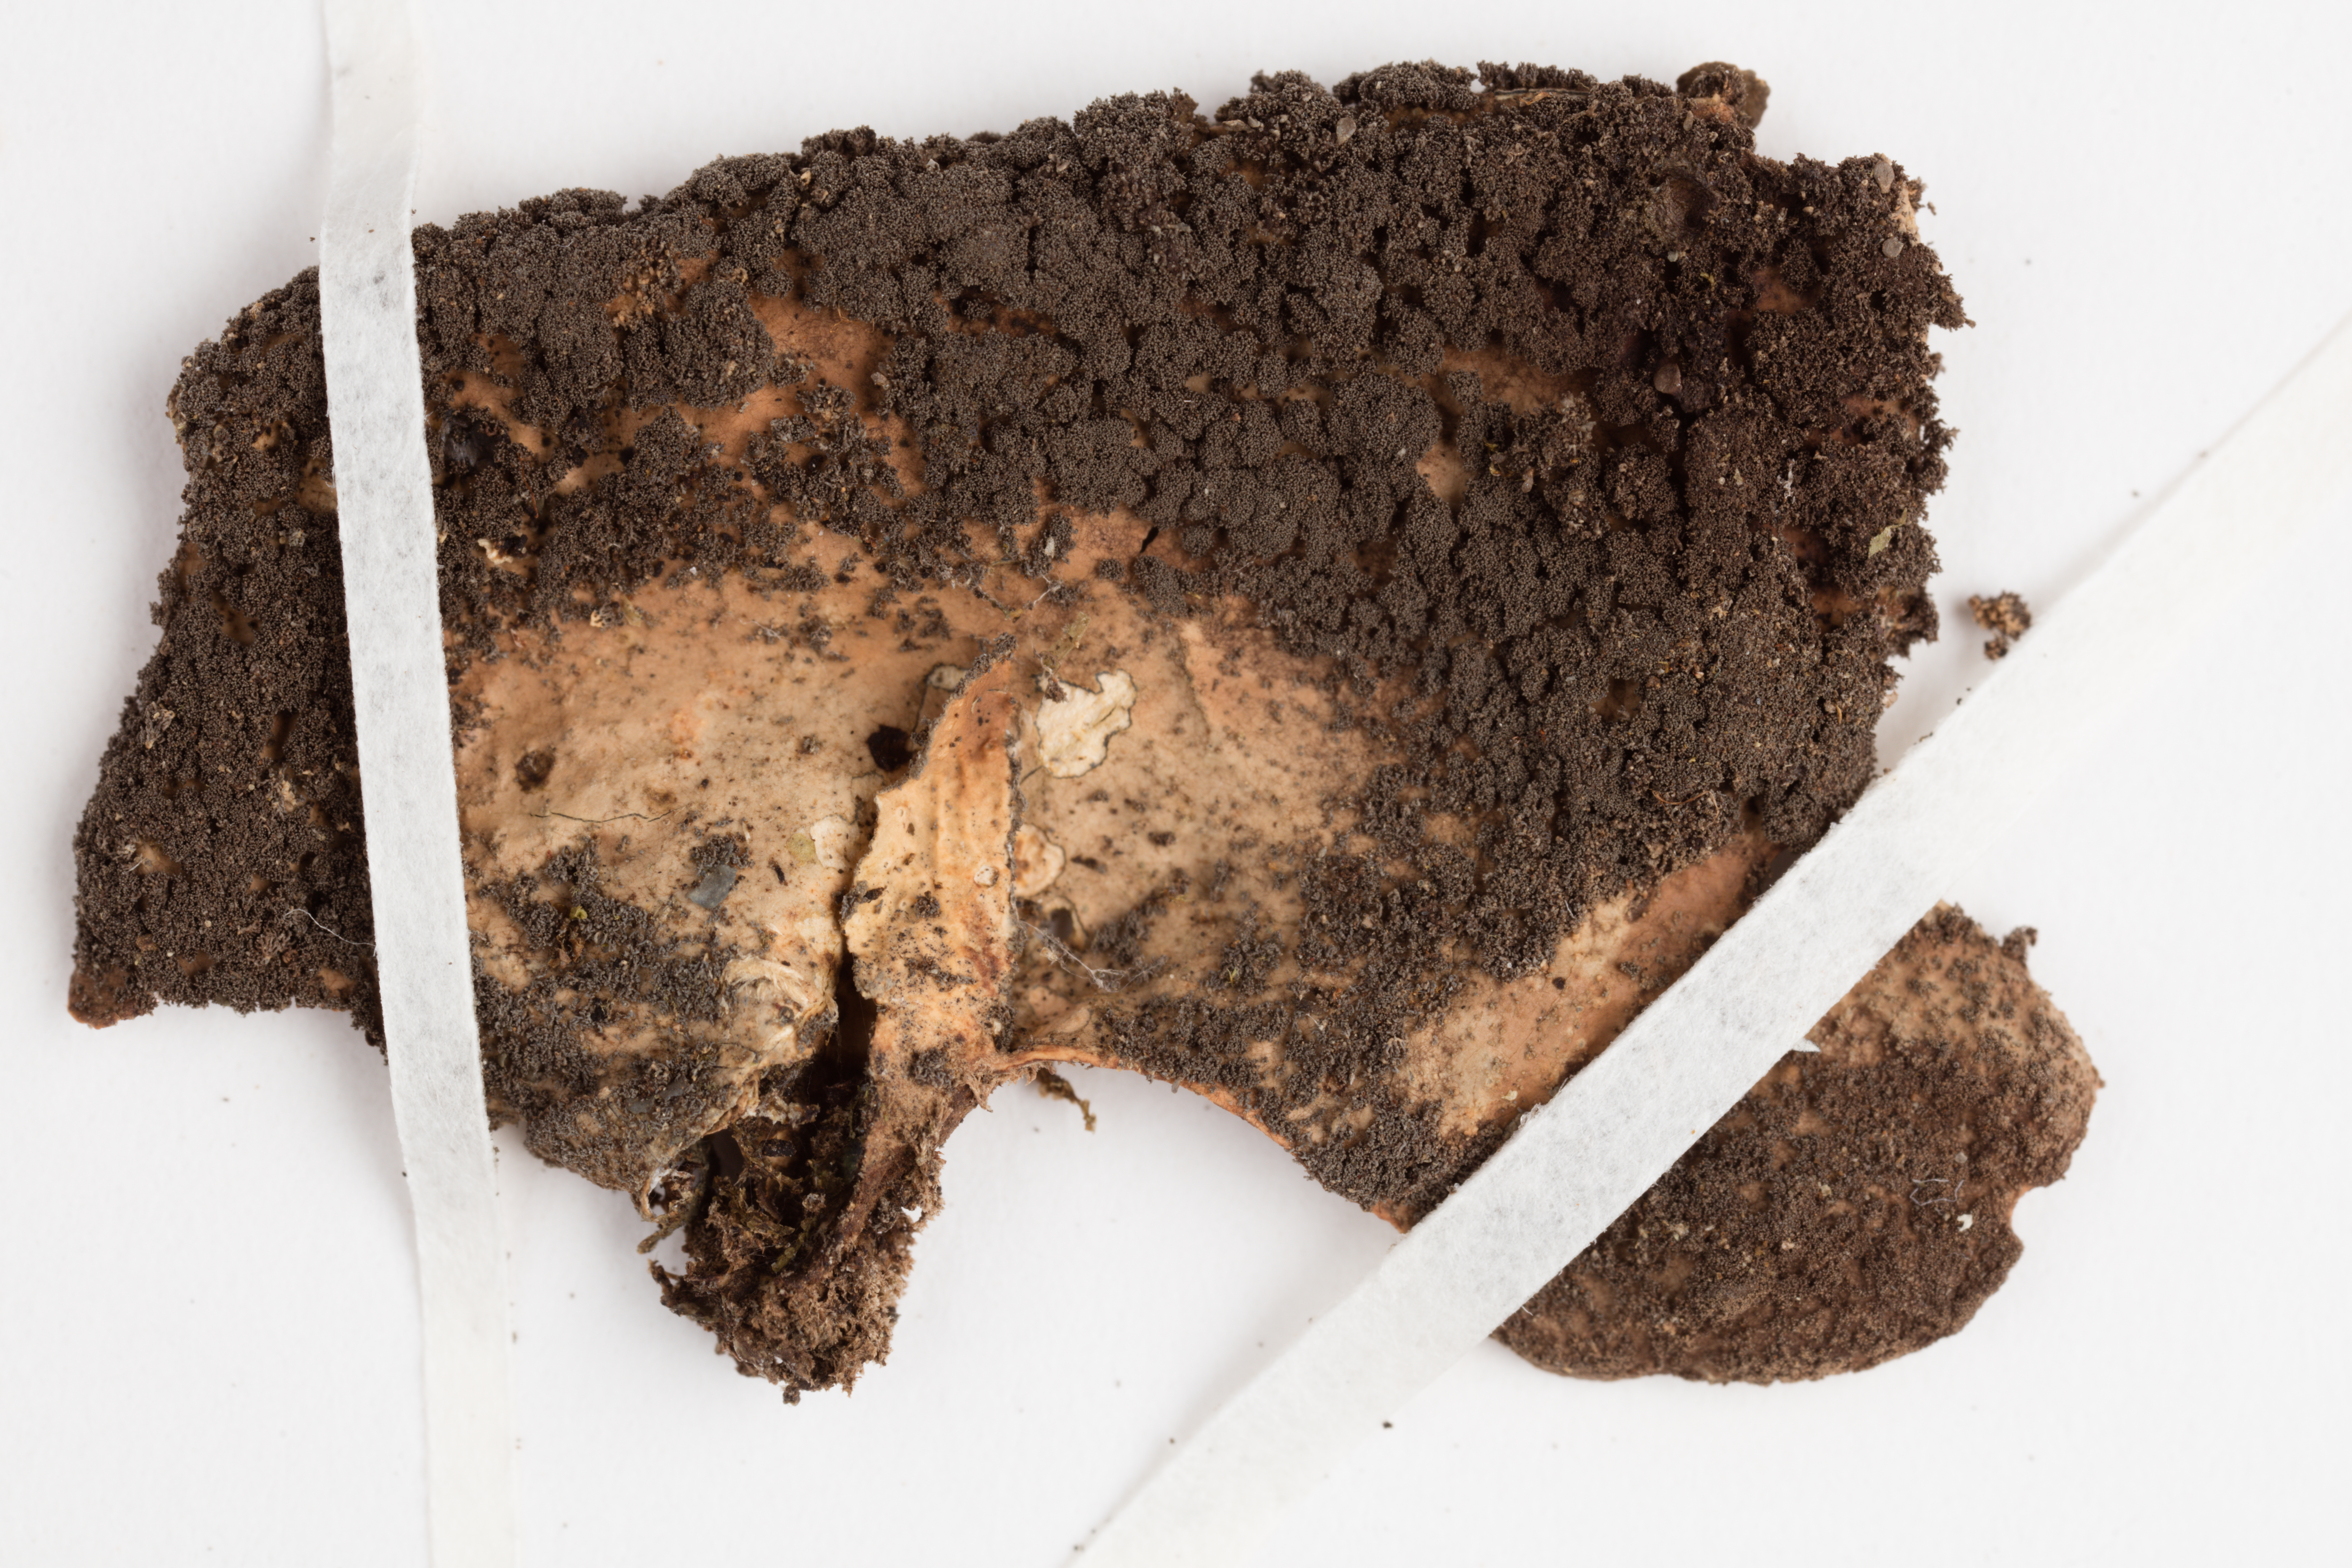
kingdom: Fungi
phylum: Ascomycota
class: Lecanoromycetes
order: Peltigerales
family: Lobariaceae
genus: Sticta
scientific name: Sticta fuliginosa
